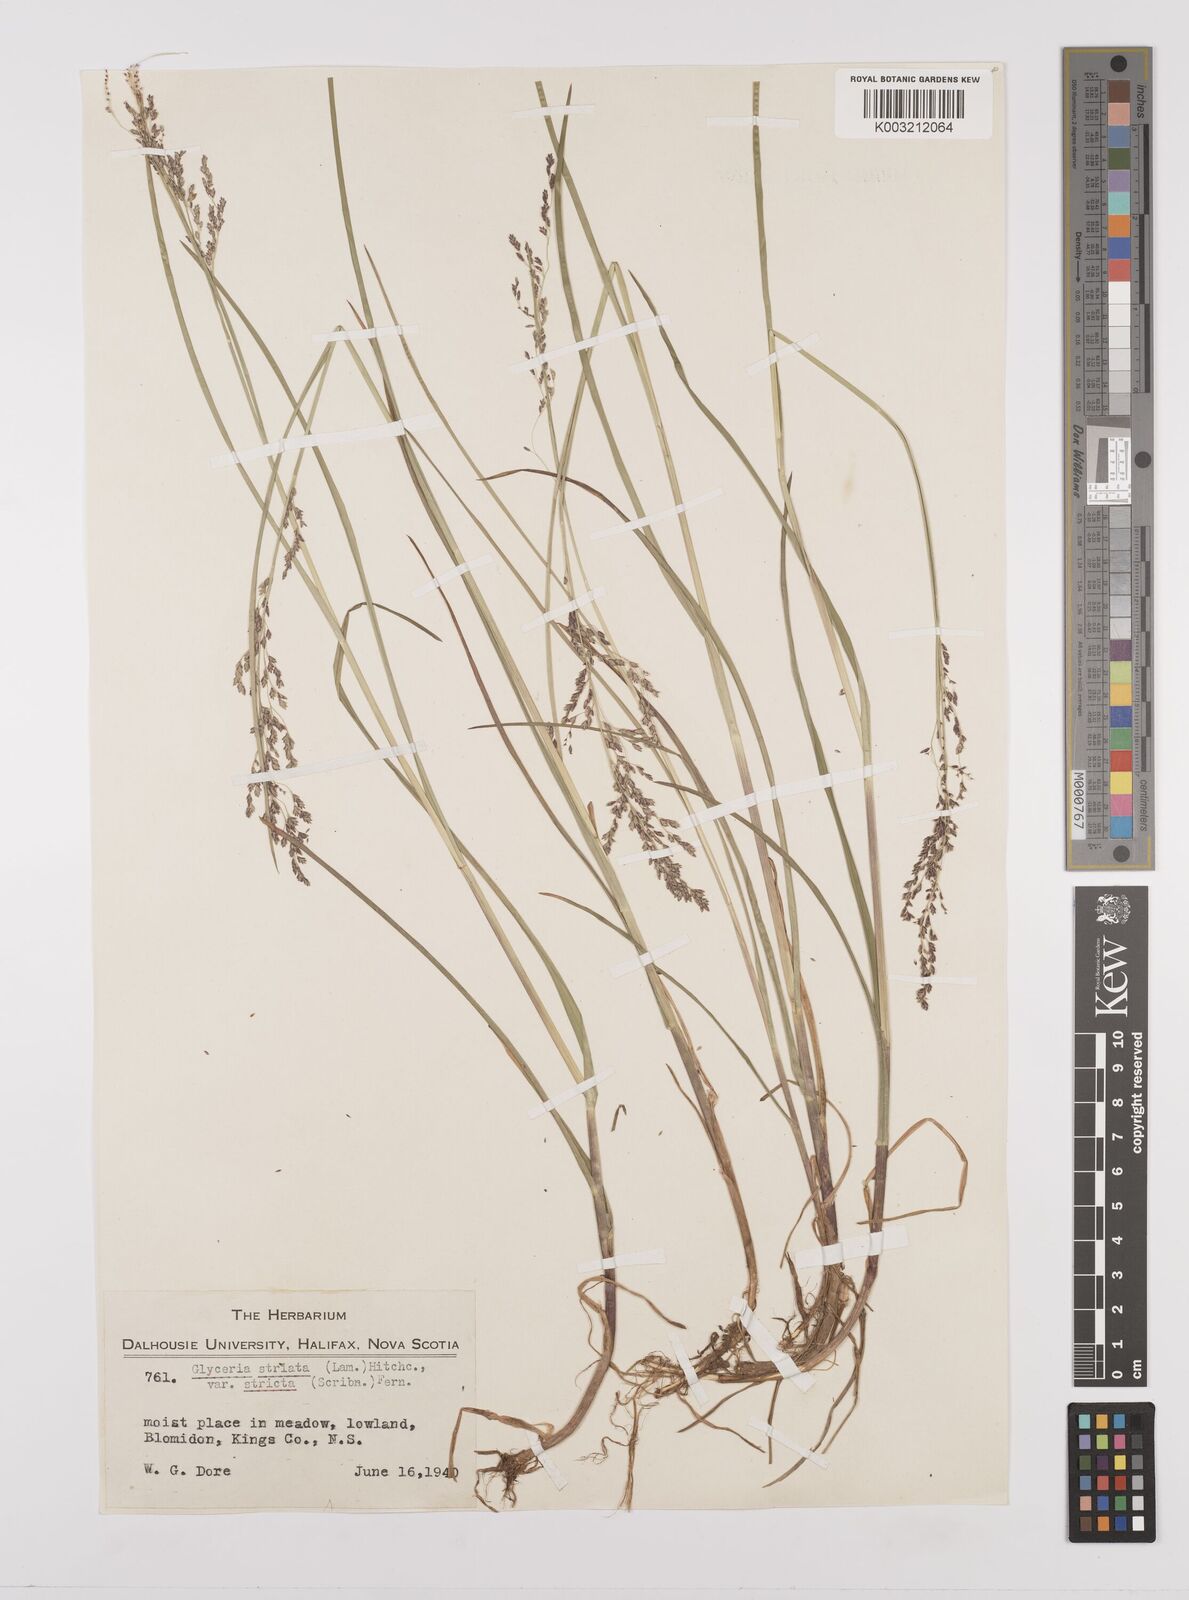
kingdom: Plantae
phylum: Tracheophyta
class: Liliopsida
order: Poales
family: Poaceae
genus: Glyceria
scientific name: Glyceria striata
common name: Fowl manna grass
